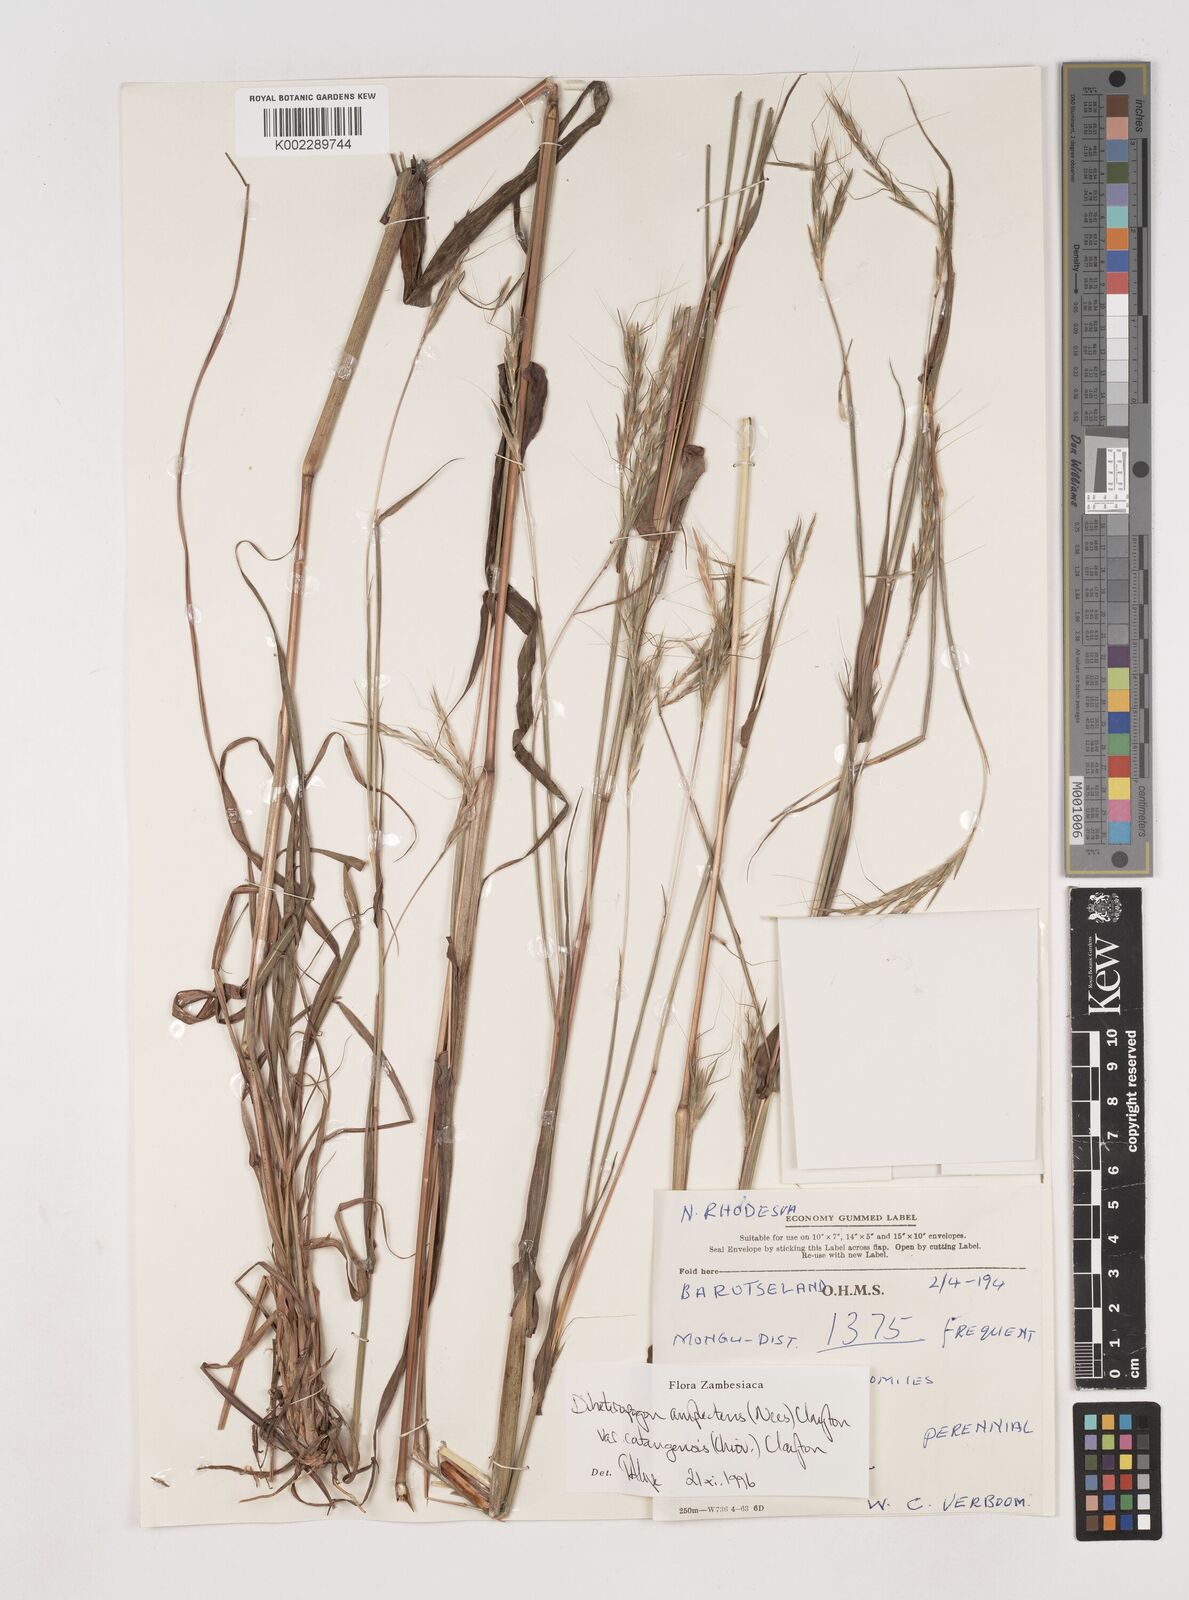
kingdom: Plantae
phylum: Tracheophyta
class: Liliopsida
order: Poales
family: Poaceae
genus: Diheteropogon
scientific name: Diheteropogon amplectens
